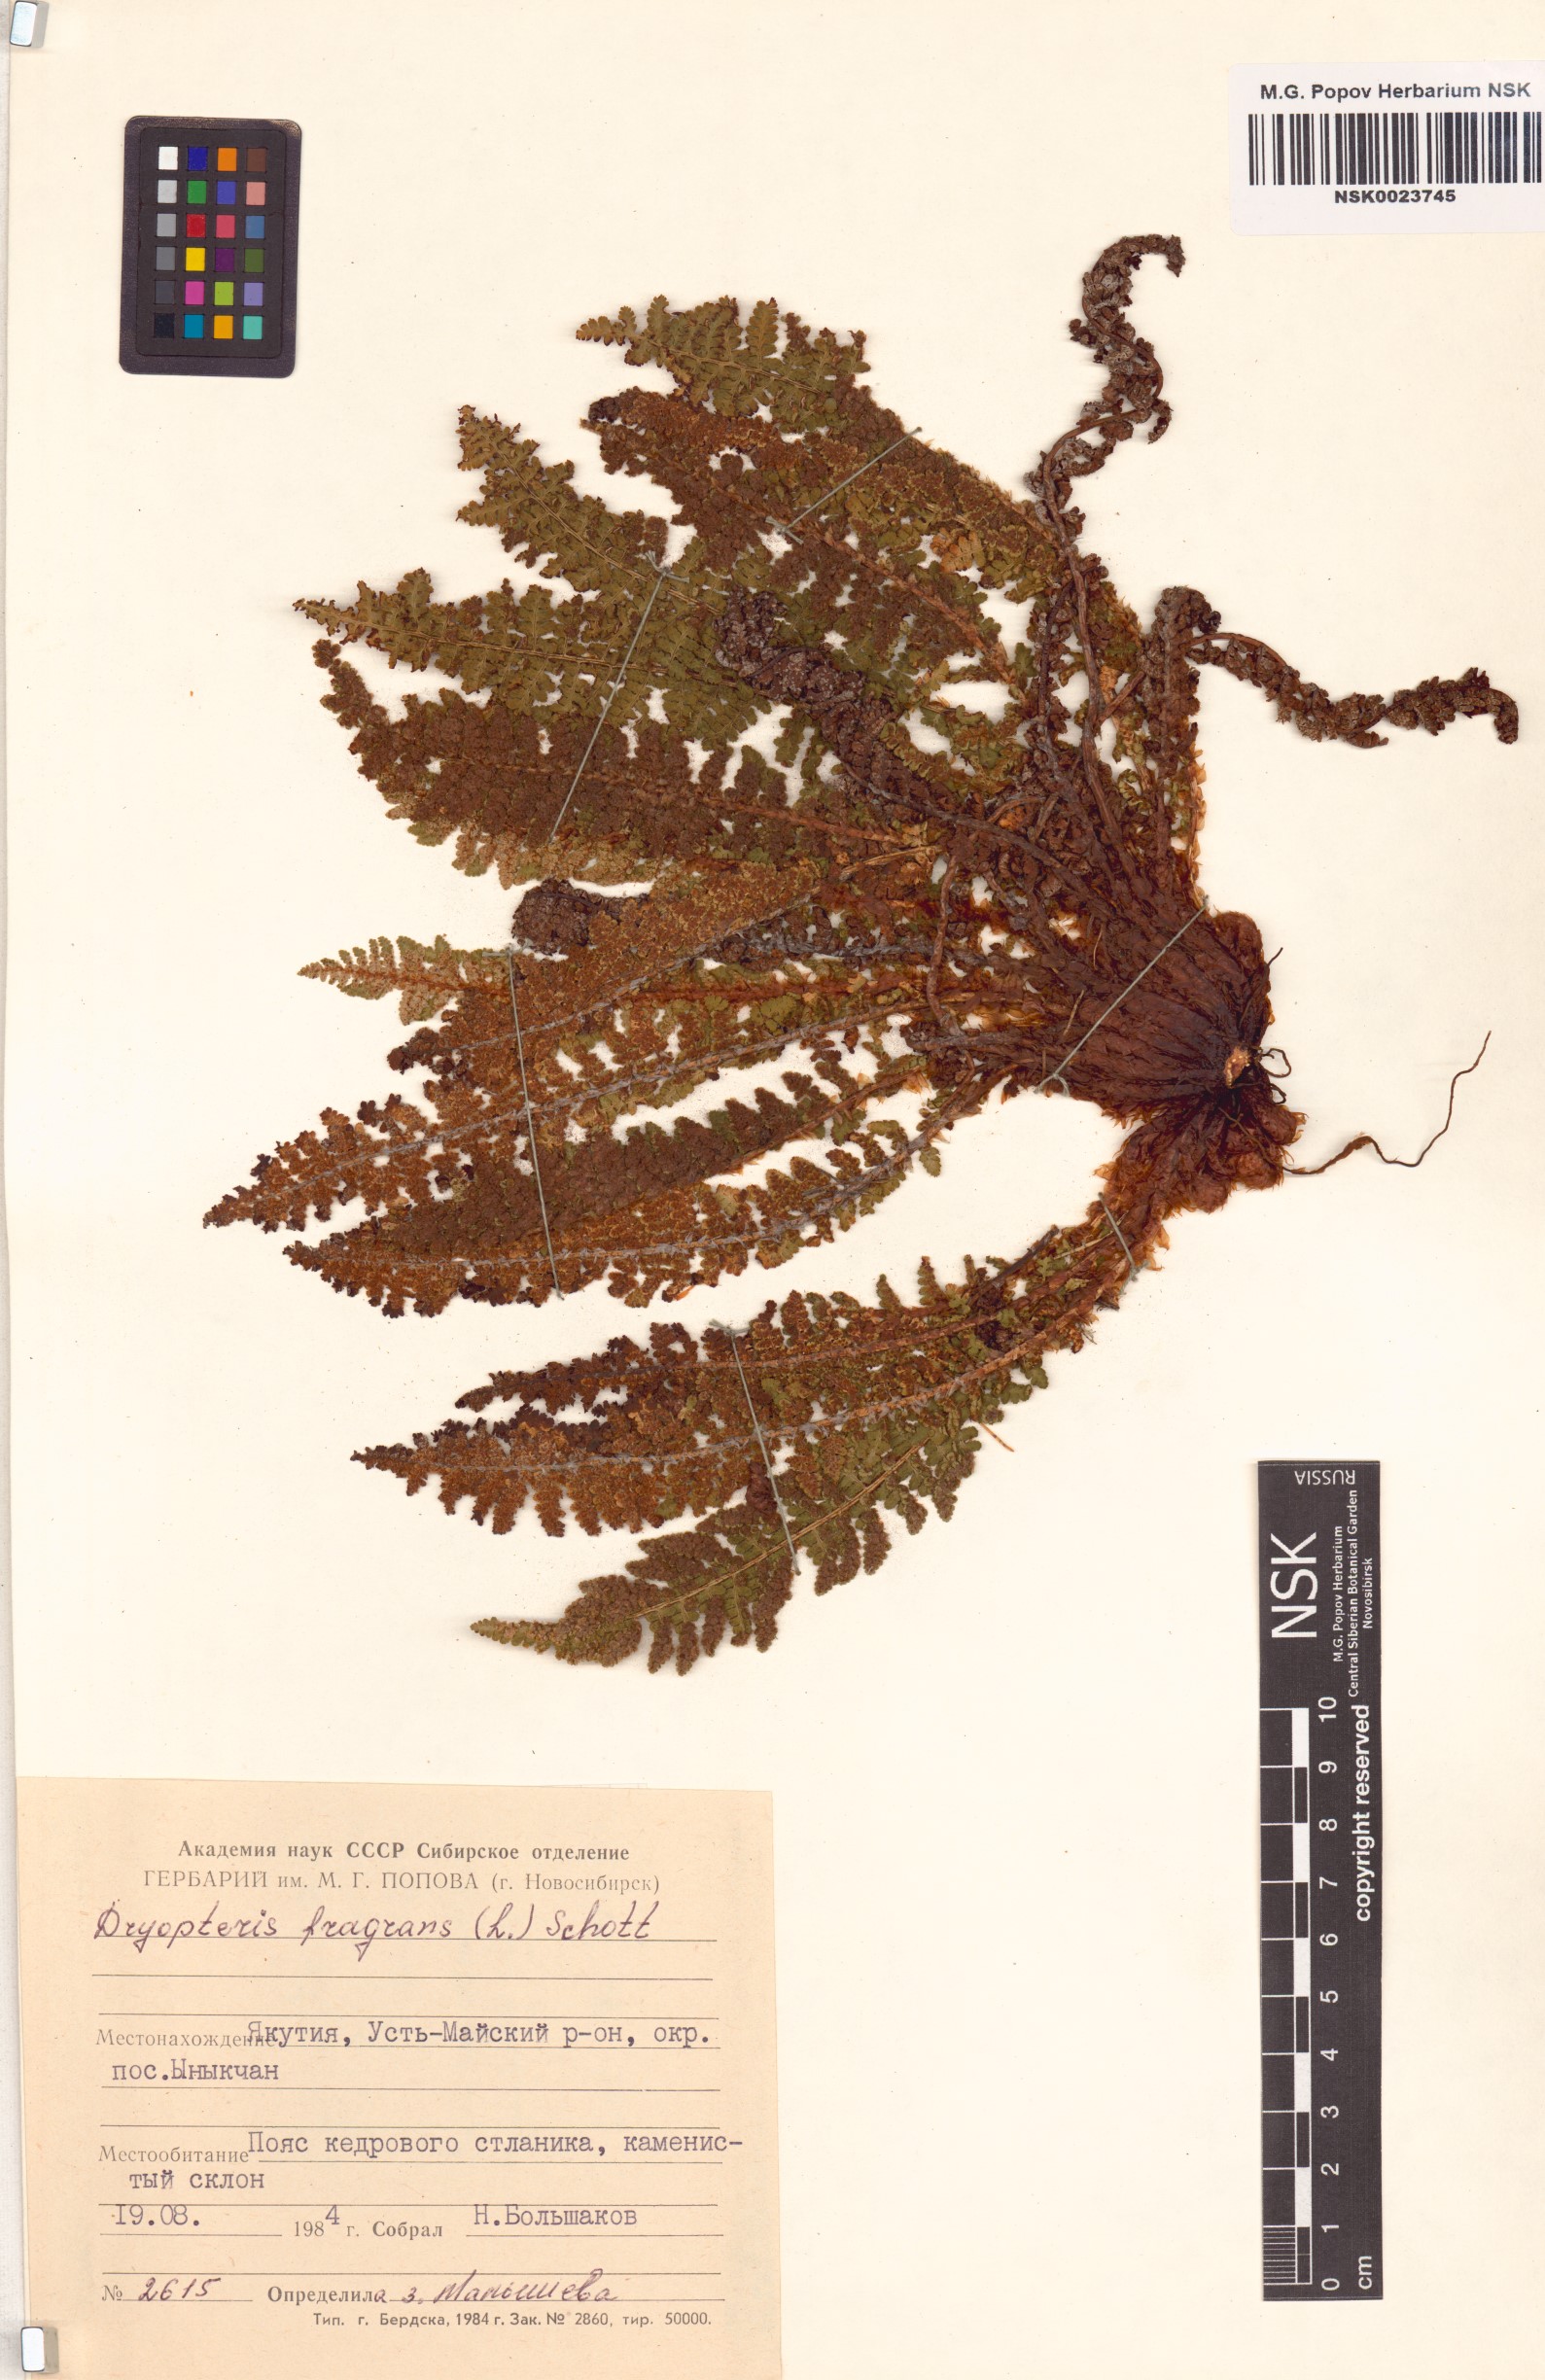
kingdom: Plantae
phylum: Tracheophyta
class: Polypodiopsida
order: Polypodiales
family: Dryopteridaceae
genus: Dryopteris
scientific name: Dryopteris fragrans
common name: Fragrant wood fern
